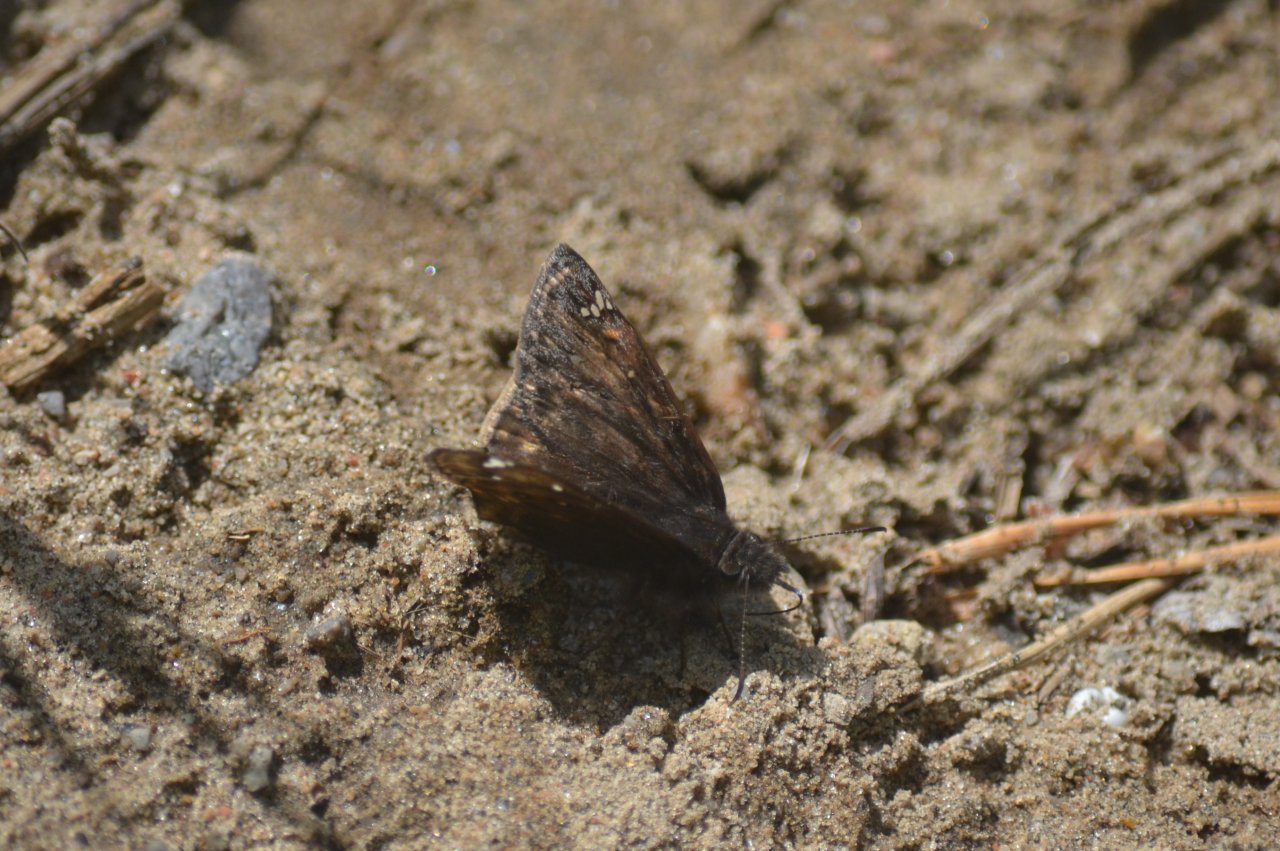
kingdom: Animalia
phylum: Arthropoda
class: Insecta
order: Lepidoptera
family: Hesperiidae
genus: Erynnis
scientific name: Erynnis
